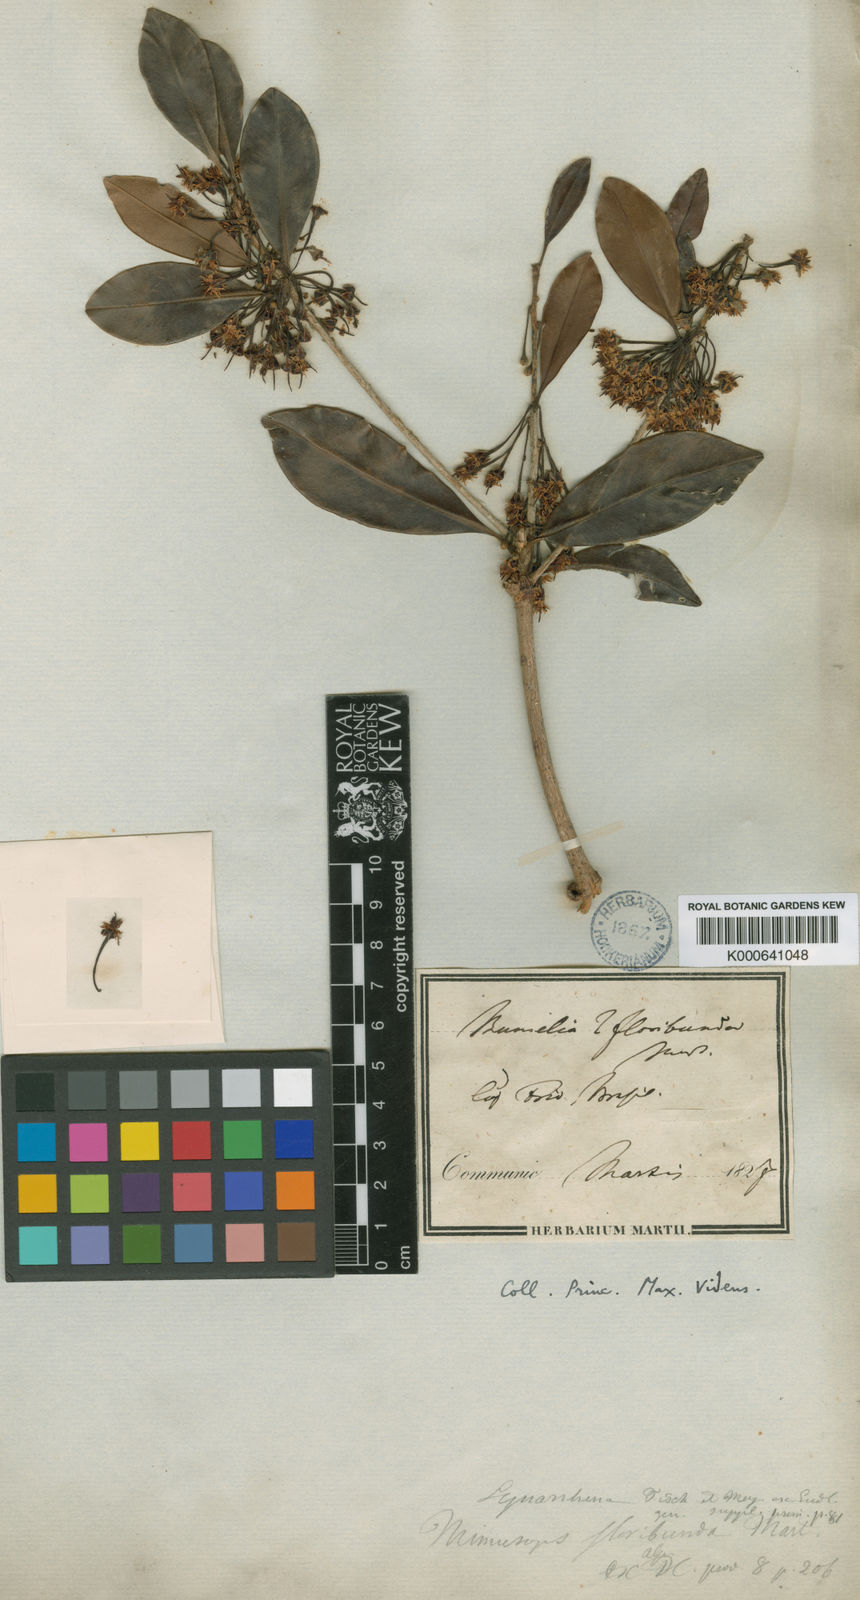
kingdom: Plantae
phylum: Tracheophyta
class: Magnoliopsida
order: Ericales
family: Sapotaceae
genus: Manilkara
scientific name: Manilkara subsericea
